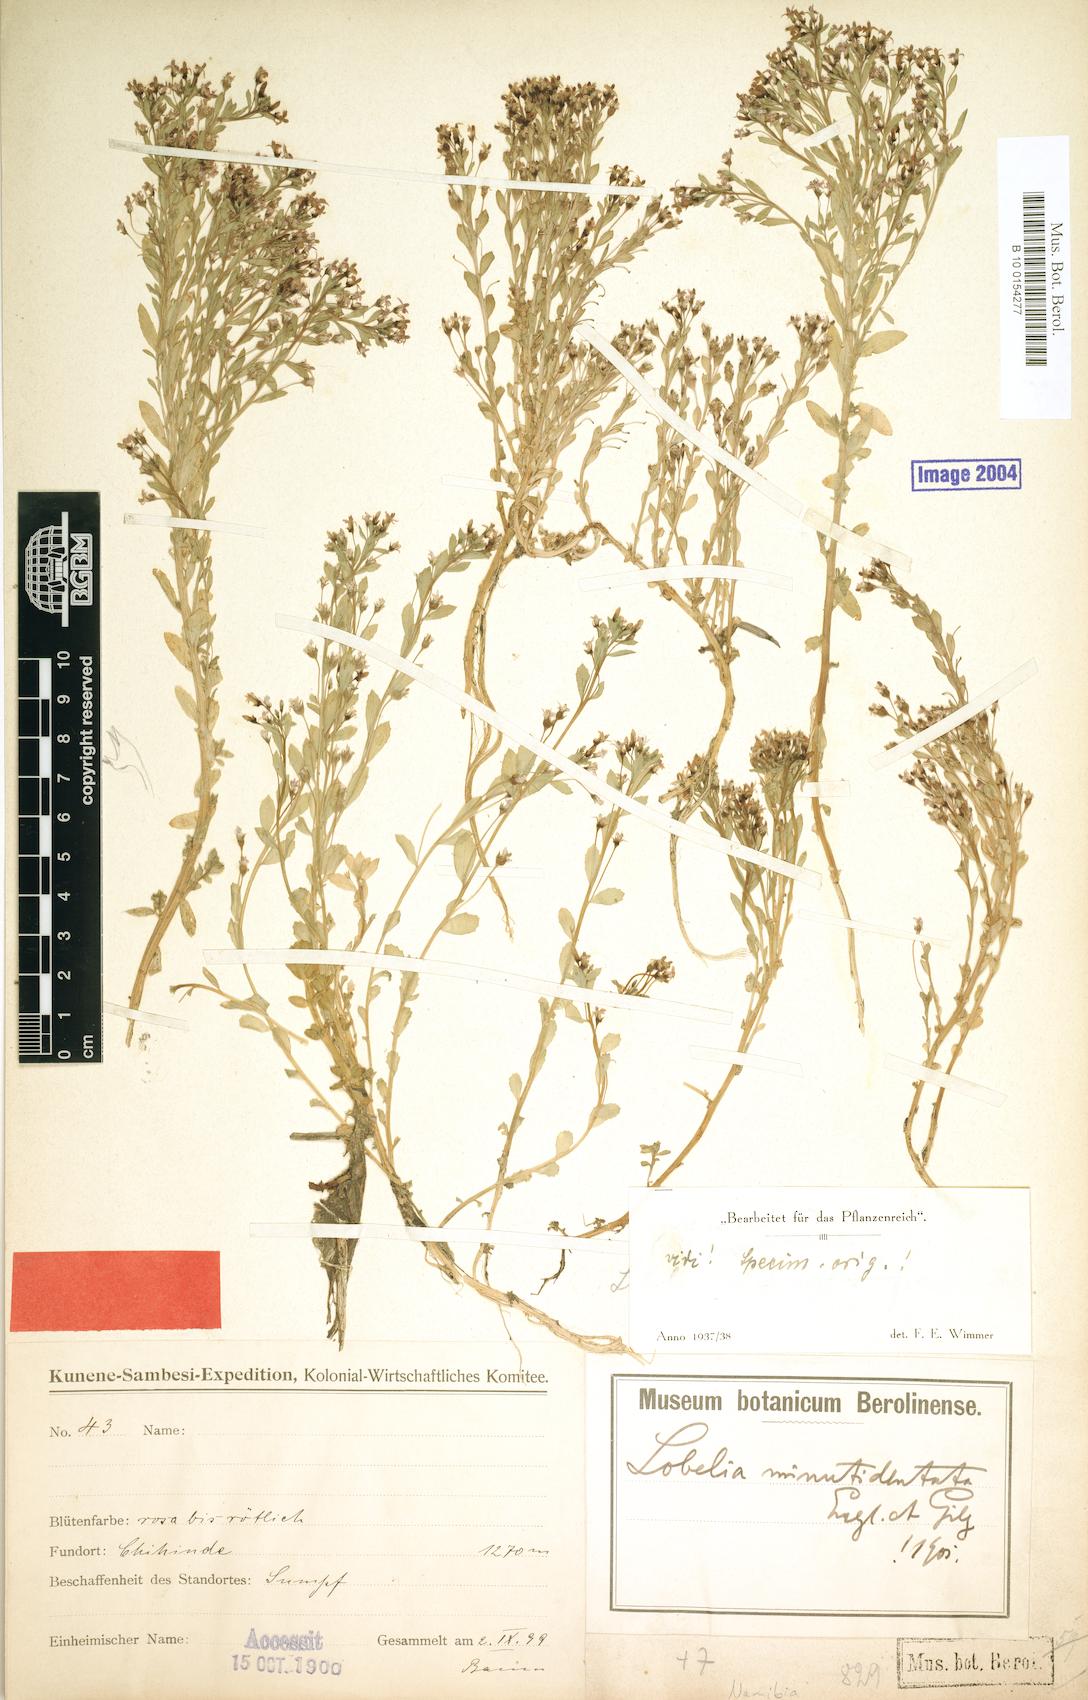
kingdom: Plantae
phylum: Tracheophyta
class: Magnoliopsida
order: Asterales
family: Campanulaceae
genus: Lobelia
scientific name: Lobelia sonderiana
